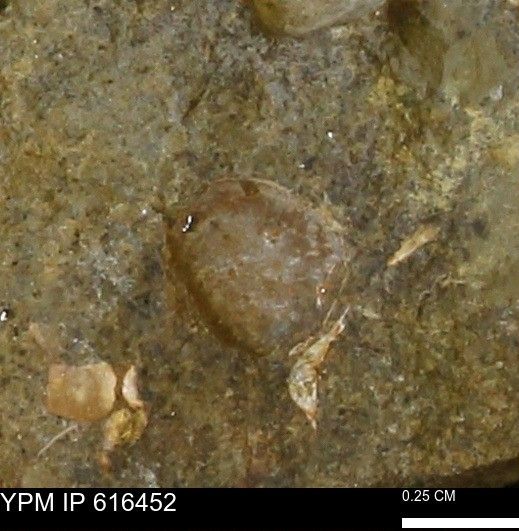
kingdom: Animalia
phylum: Mollusca
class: Bivalvia
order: Cardiida
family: Cardiidae
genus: Protocardia
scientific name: Protocardia Cardium subquadratum
